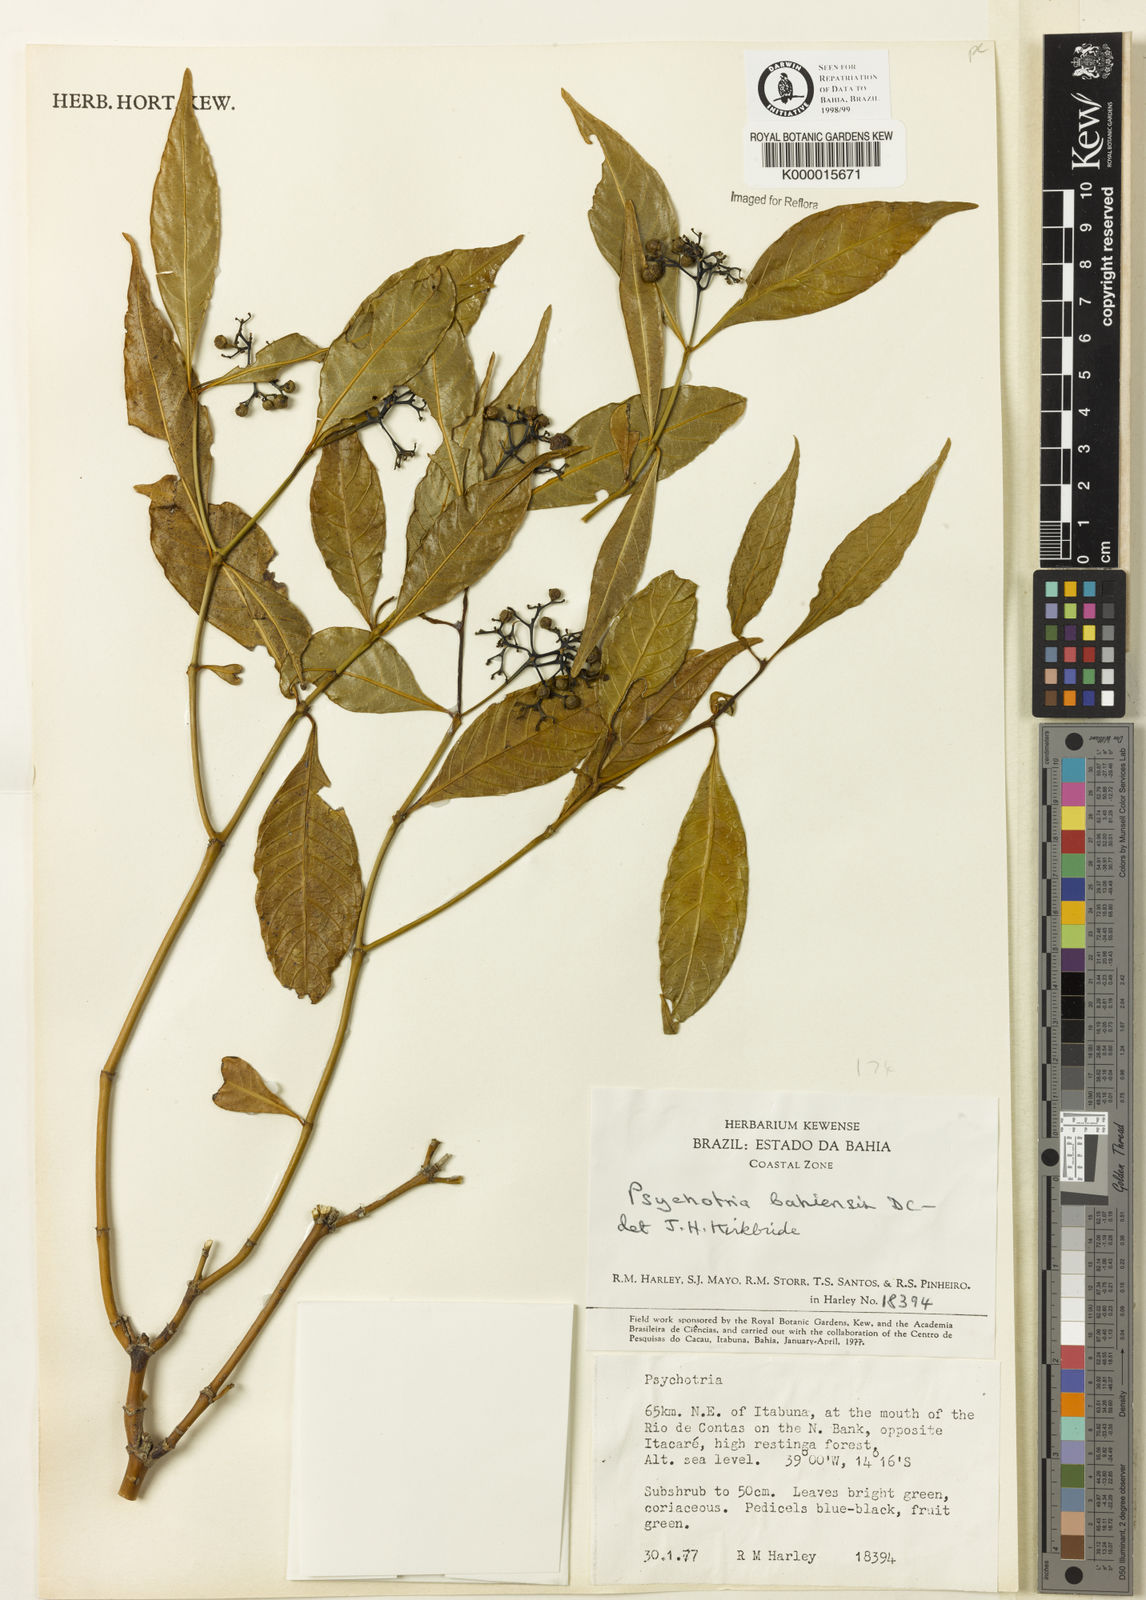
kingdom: Plantae
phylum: Tracheophyta
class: Magnoliopsida
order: Gentianales
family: Rubiaceae
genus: Psychotria
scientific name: Psychotria bahiensis
